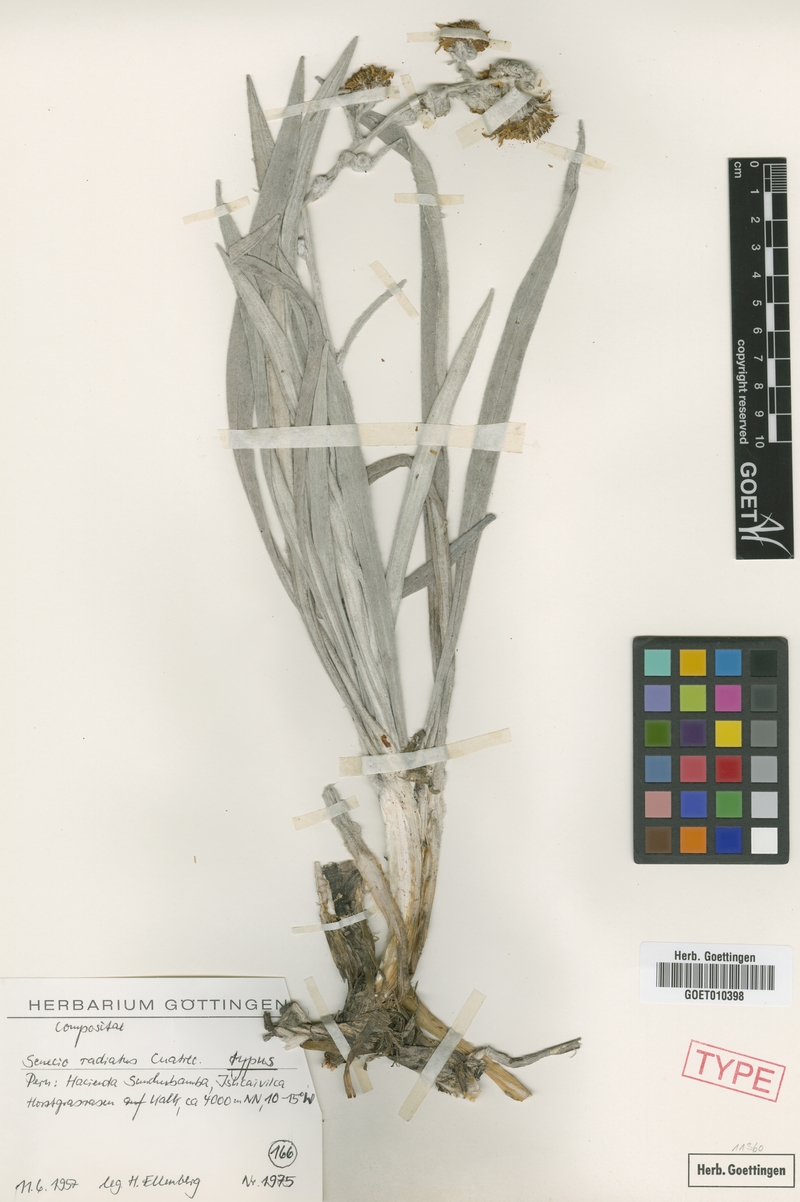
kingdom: Plantae
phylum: Tracheophyta
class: Magnoliopsida
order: Asterales
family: Asteraceae
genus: Senecio
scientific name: Senecio radiatus
